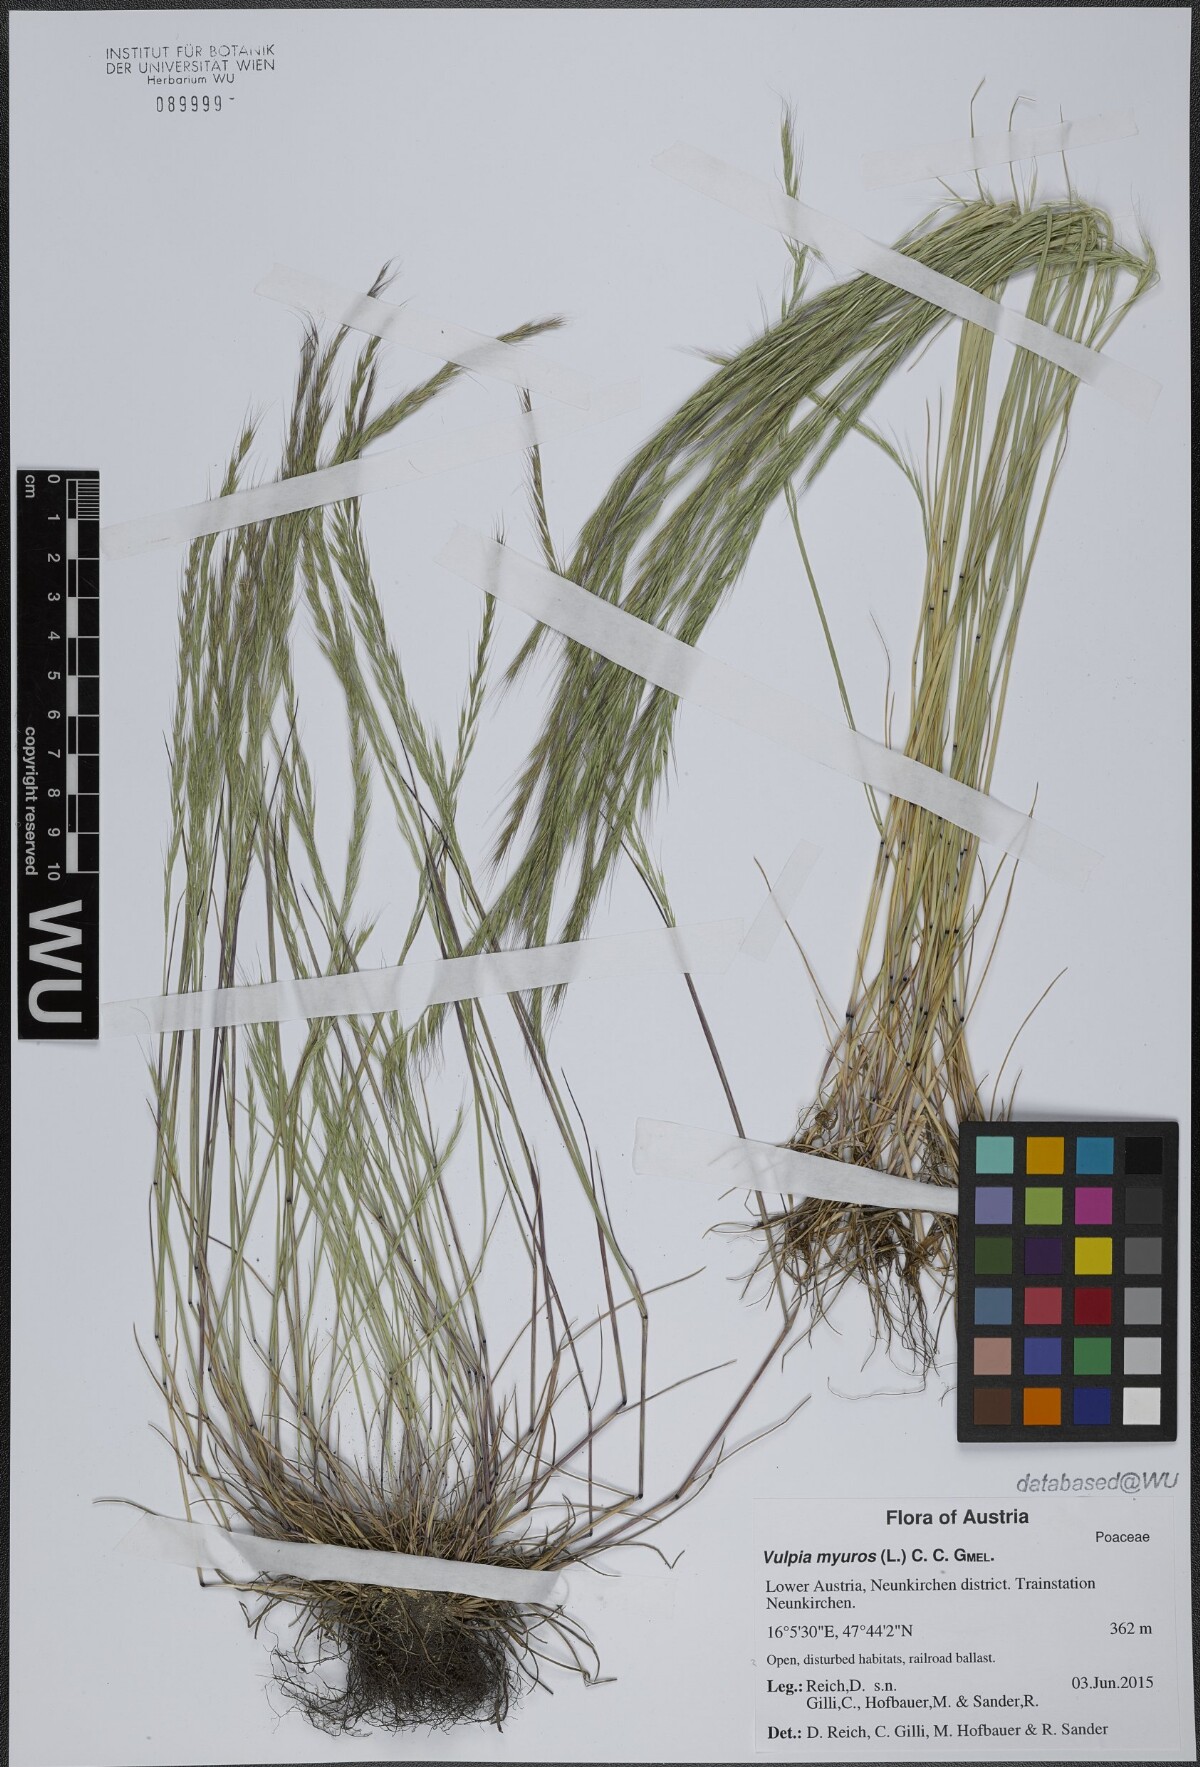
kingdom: Plantae
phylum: Tracheophyta
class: Liliopsida
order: Poales
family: Poaceae
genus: Festuca
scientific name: Festuca myuros
